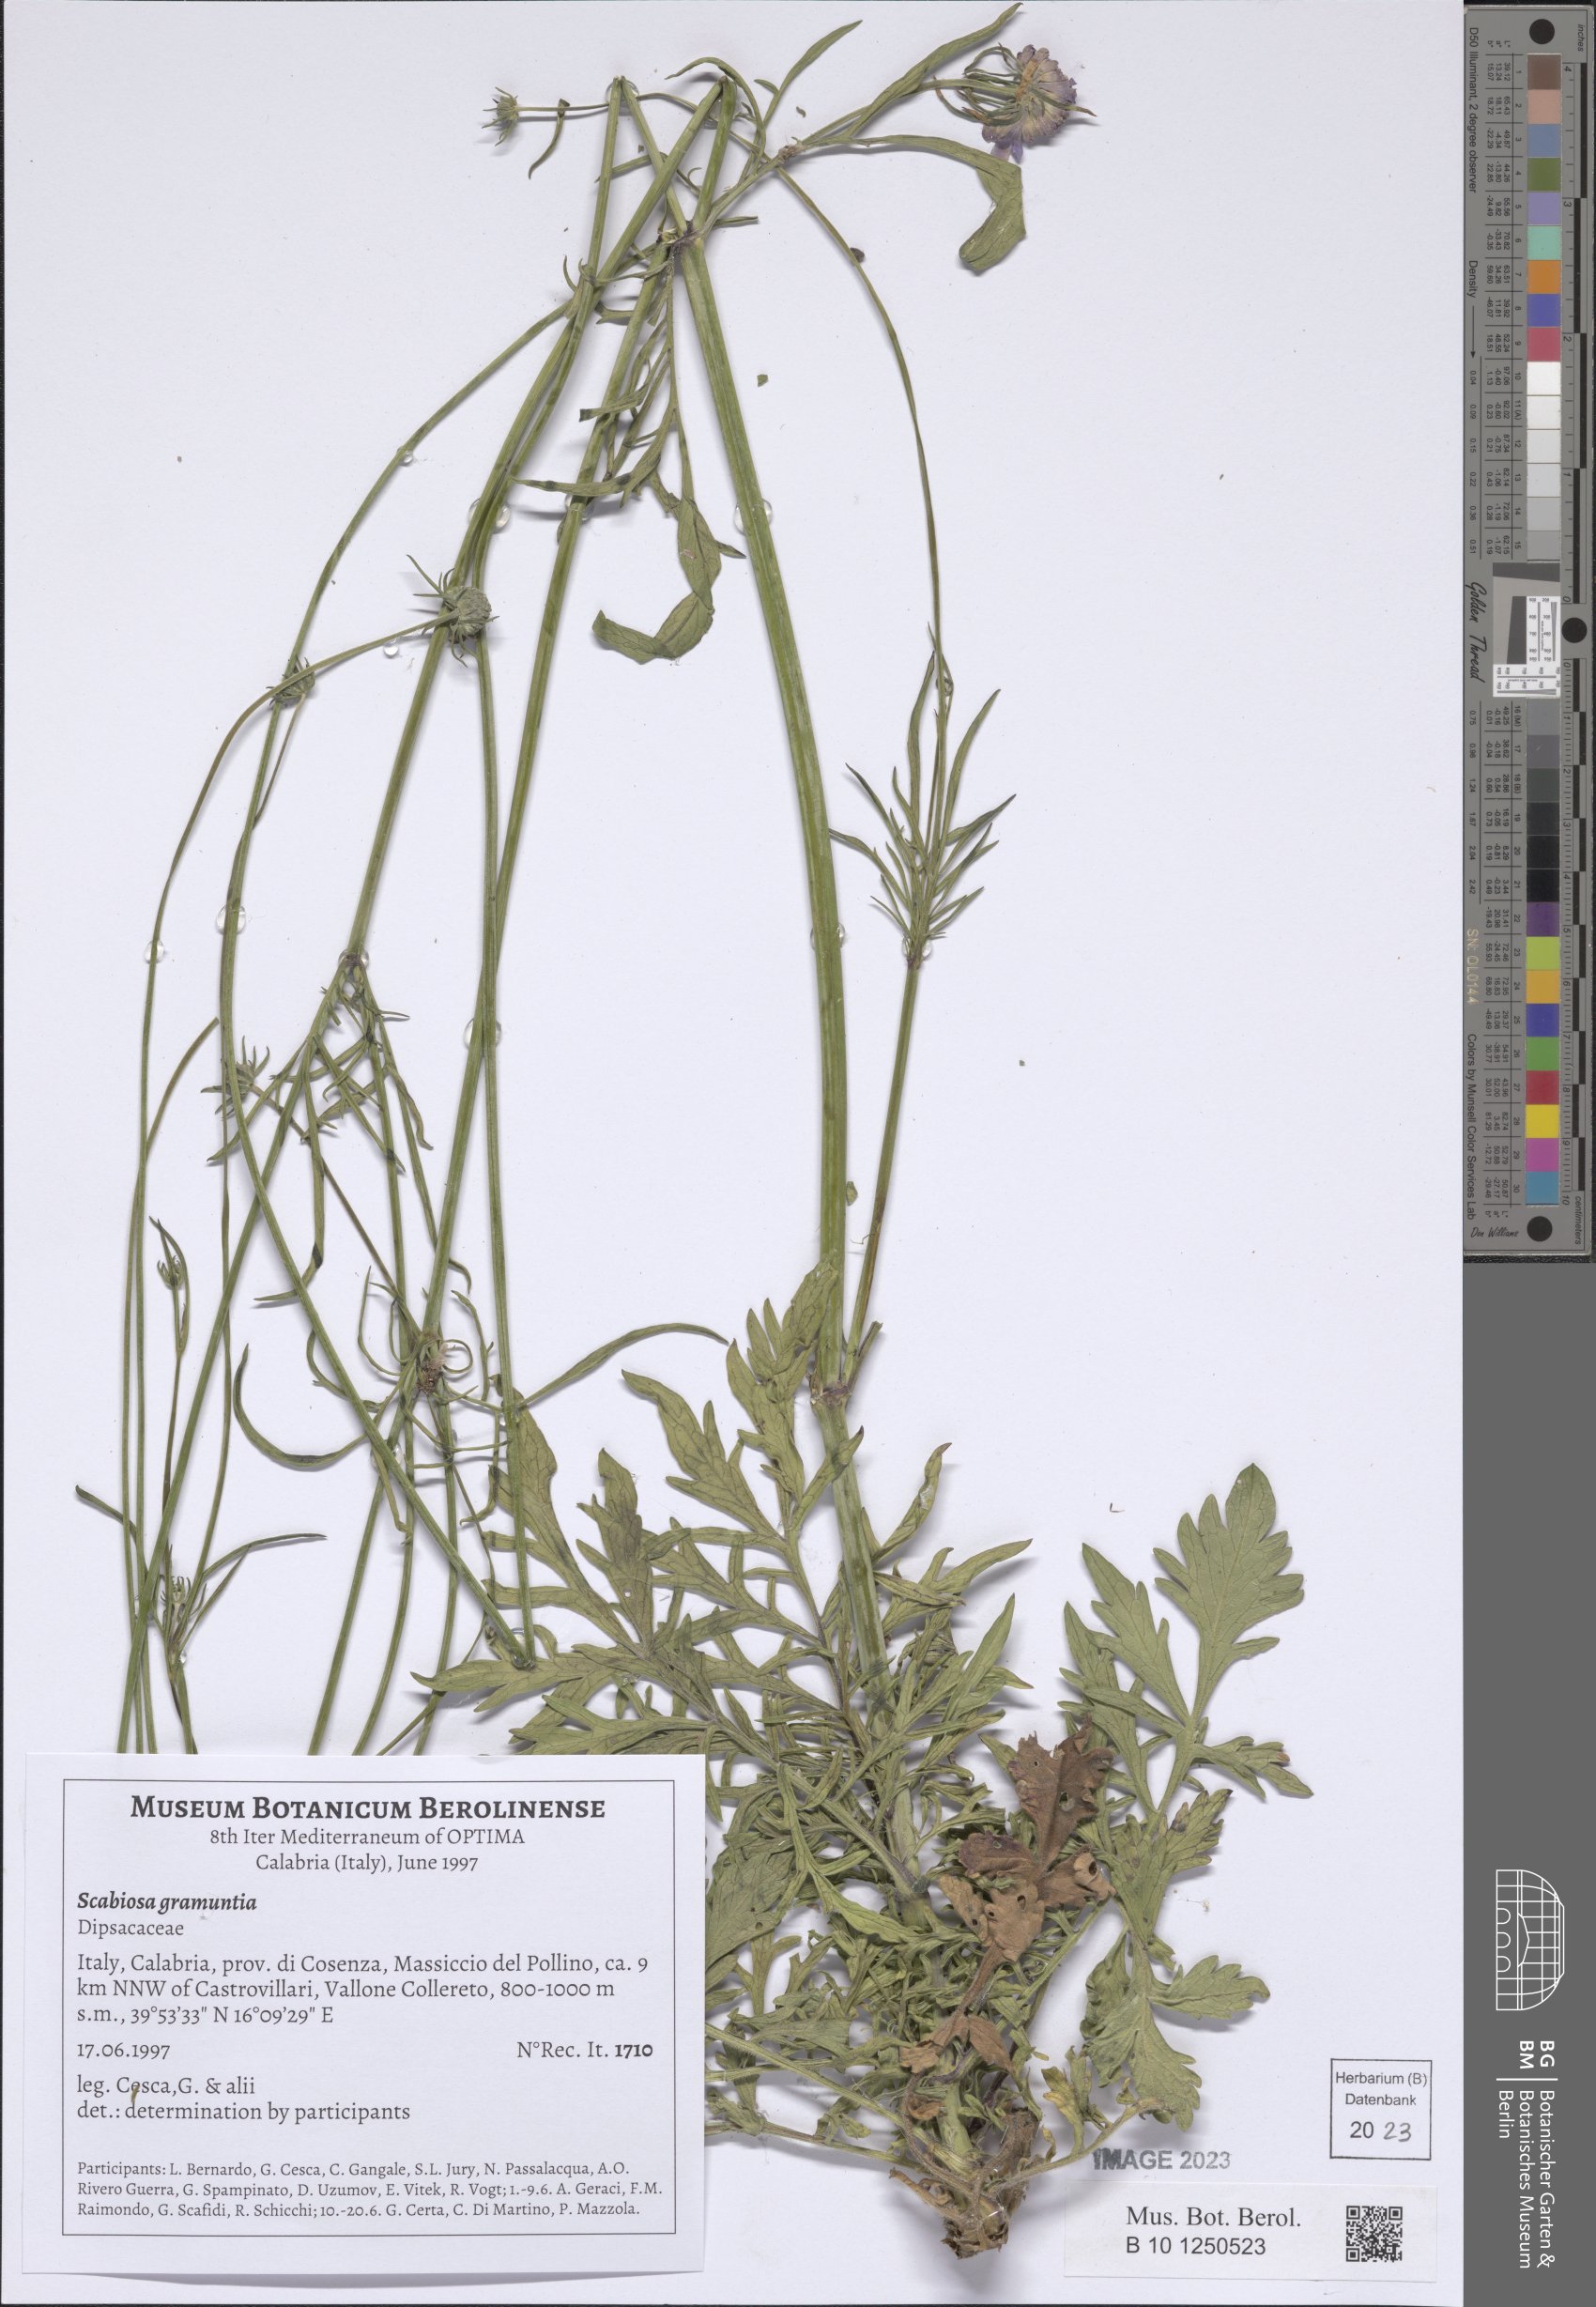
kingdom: Plantae
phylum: Tracheophyta
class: Magnoliopsida
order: Dipsacales
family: Caprifoliaceae
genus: Scabiosa
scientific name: Scabiosa triandra
